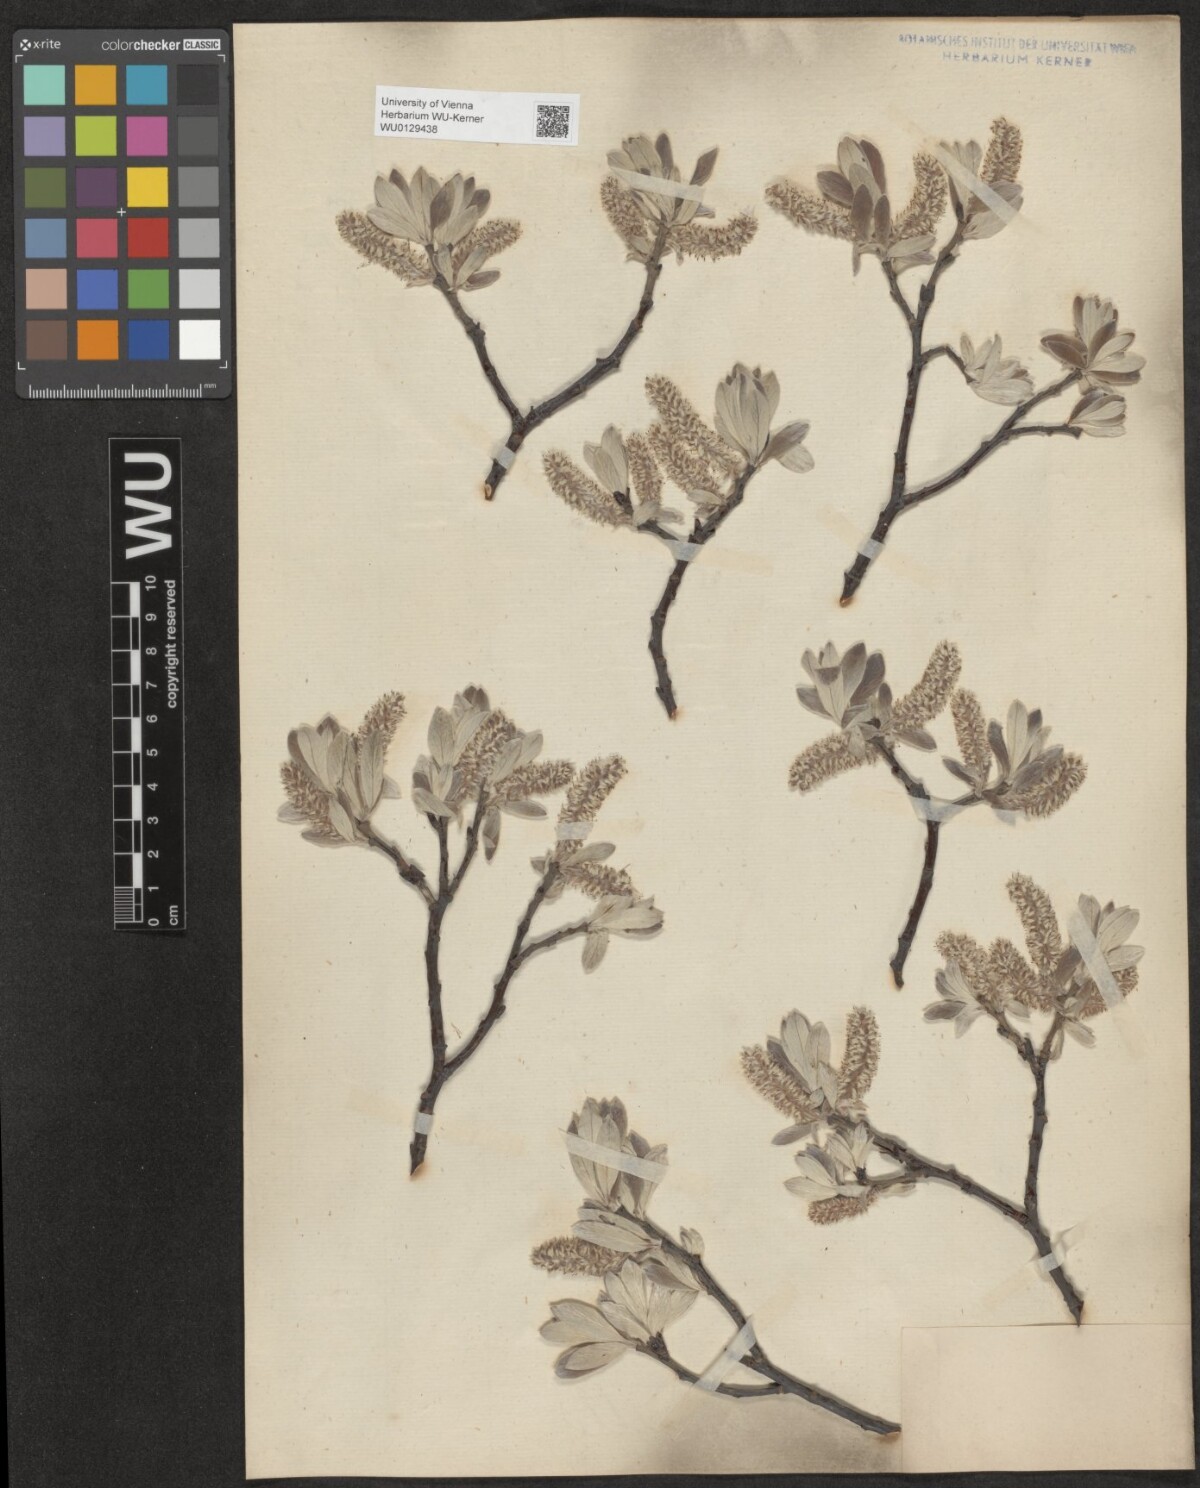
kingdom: Plantae
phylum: Tracheophyta
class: Magnoliopsida
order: Malpighiales
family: Salicaceae
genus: Salix
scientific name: Salix helvetica
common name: Swiss willow
